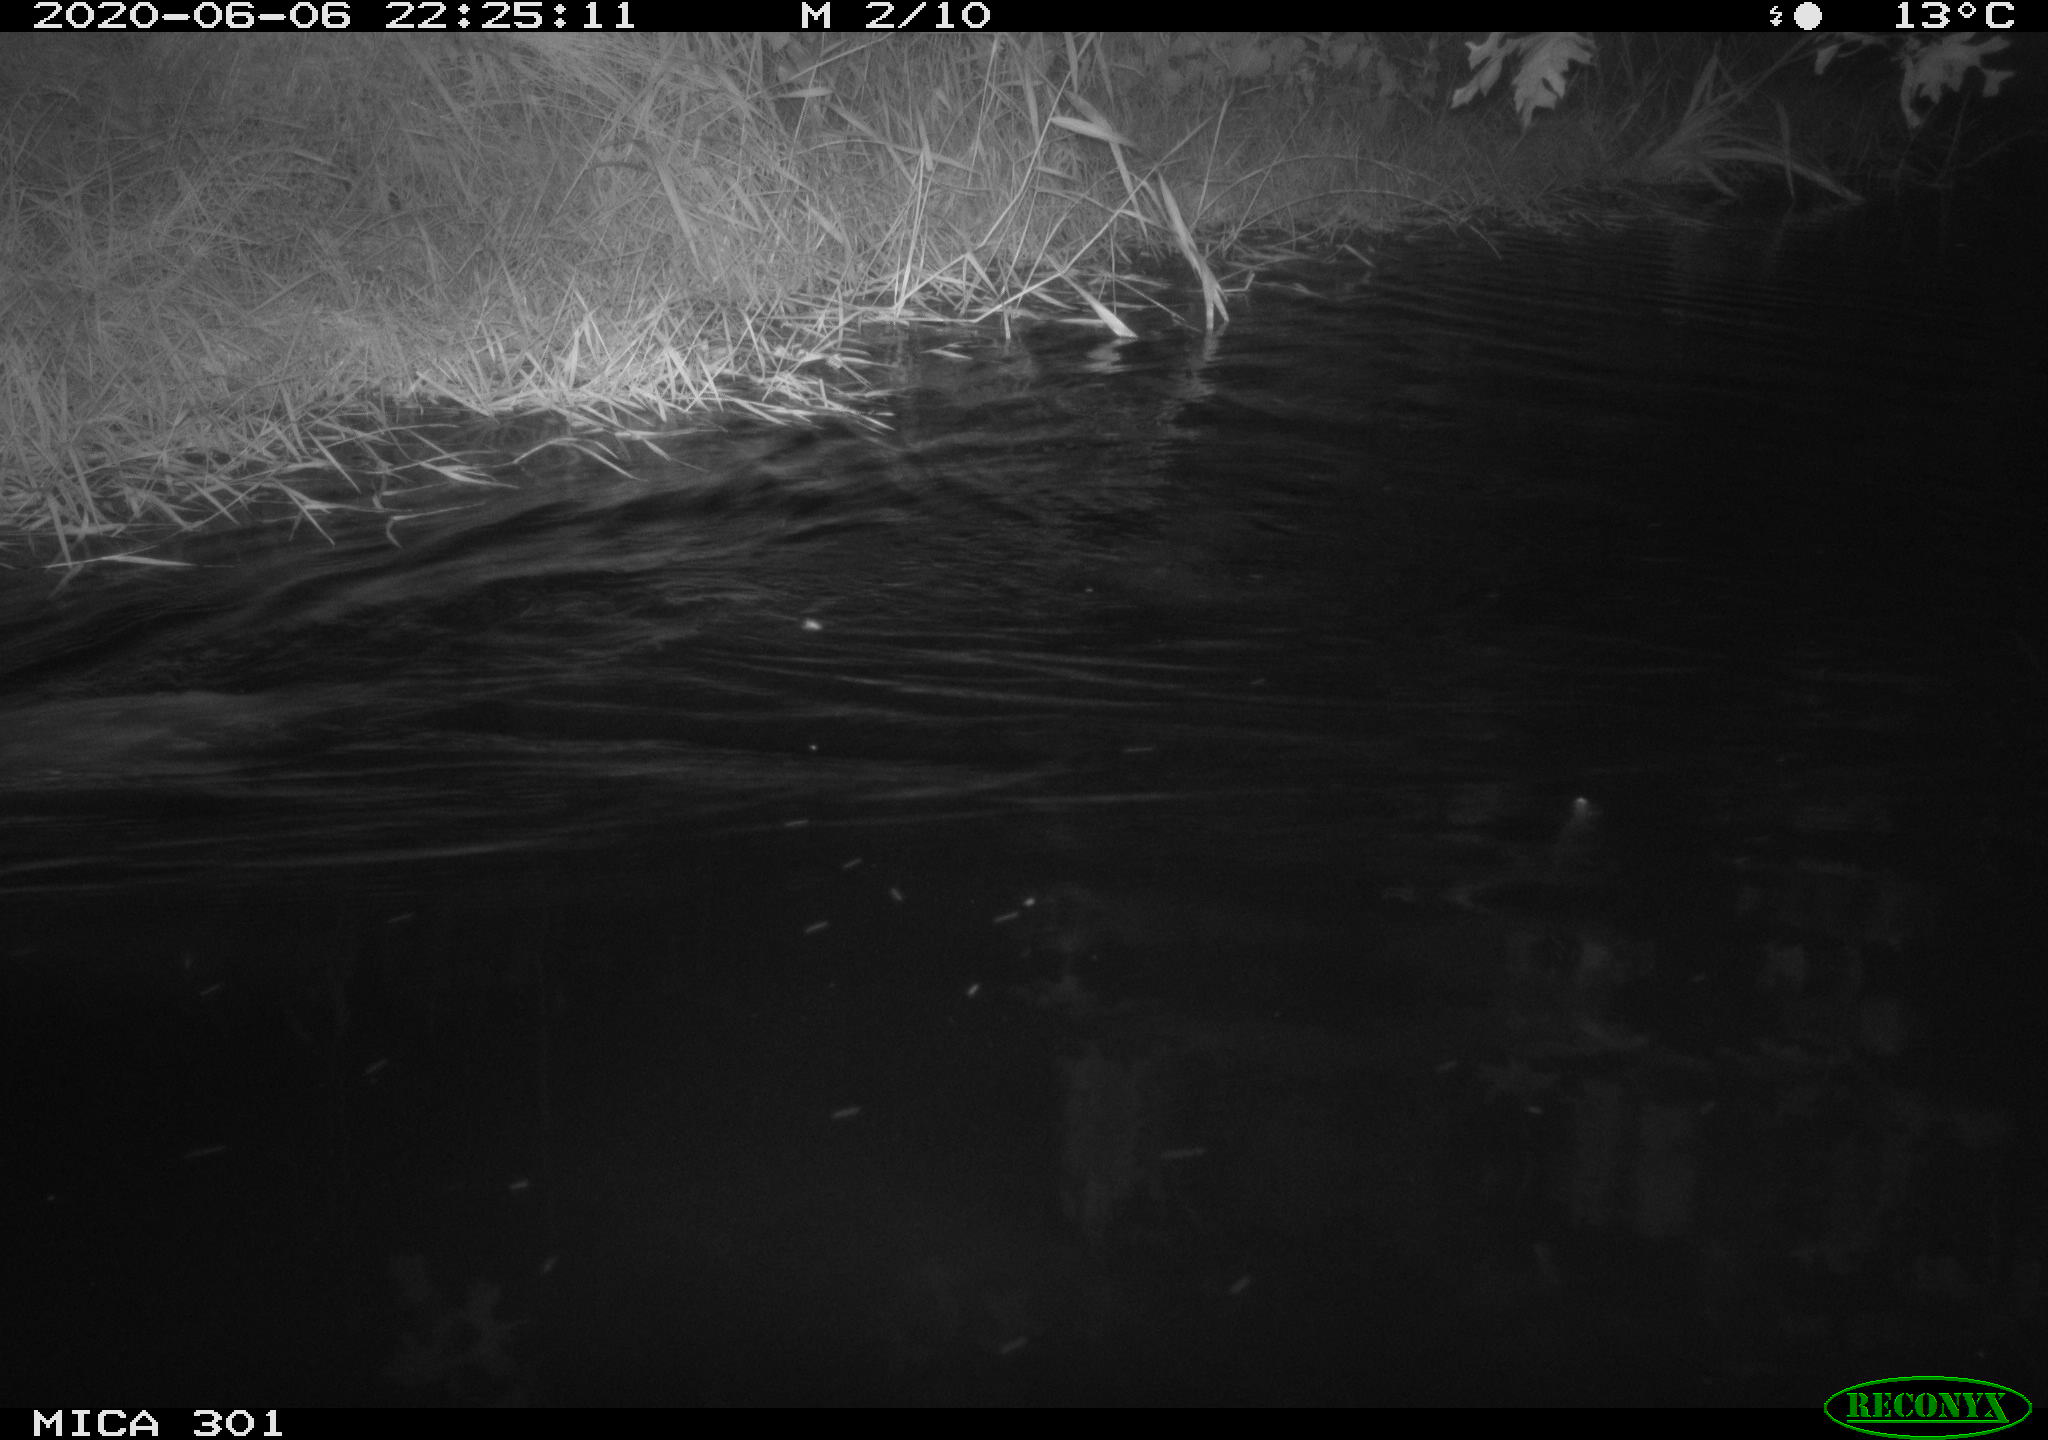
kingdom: Animalia
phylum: Chordata
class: Mammalia
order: Rodentia
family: Castoridae
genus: Castor
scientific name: Castor fiber
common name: Eurasian beaver
